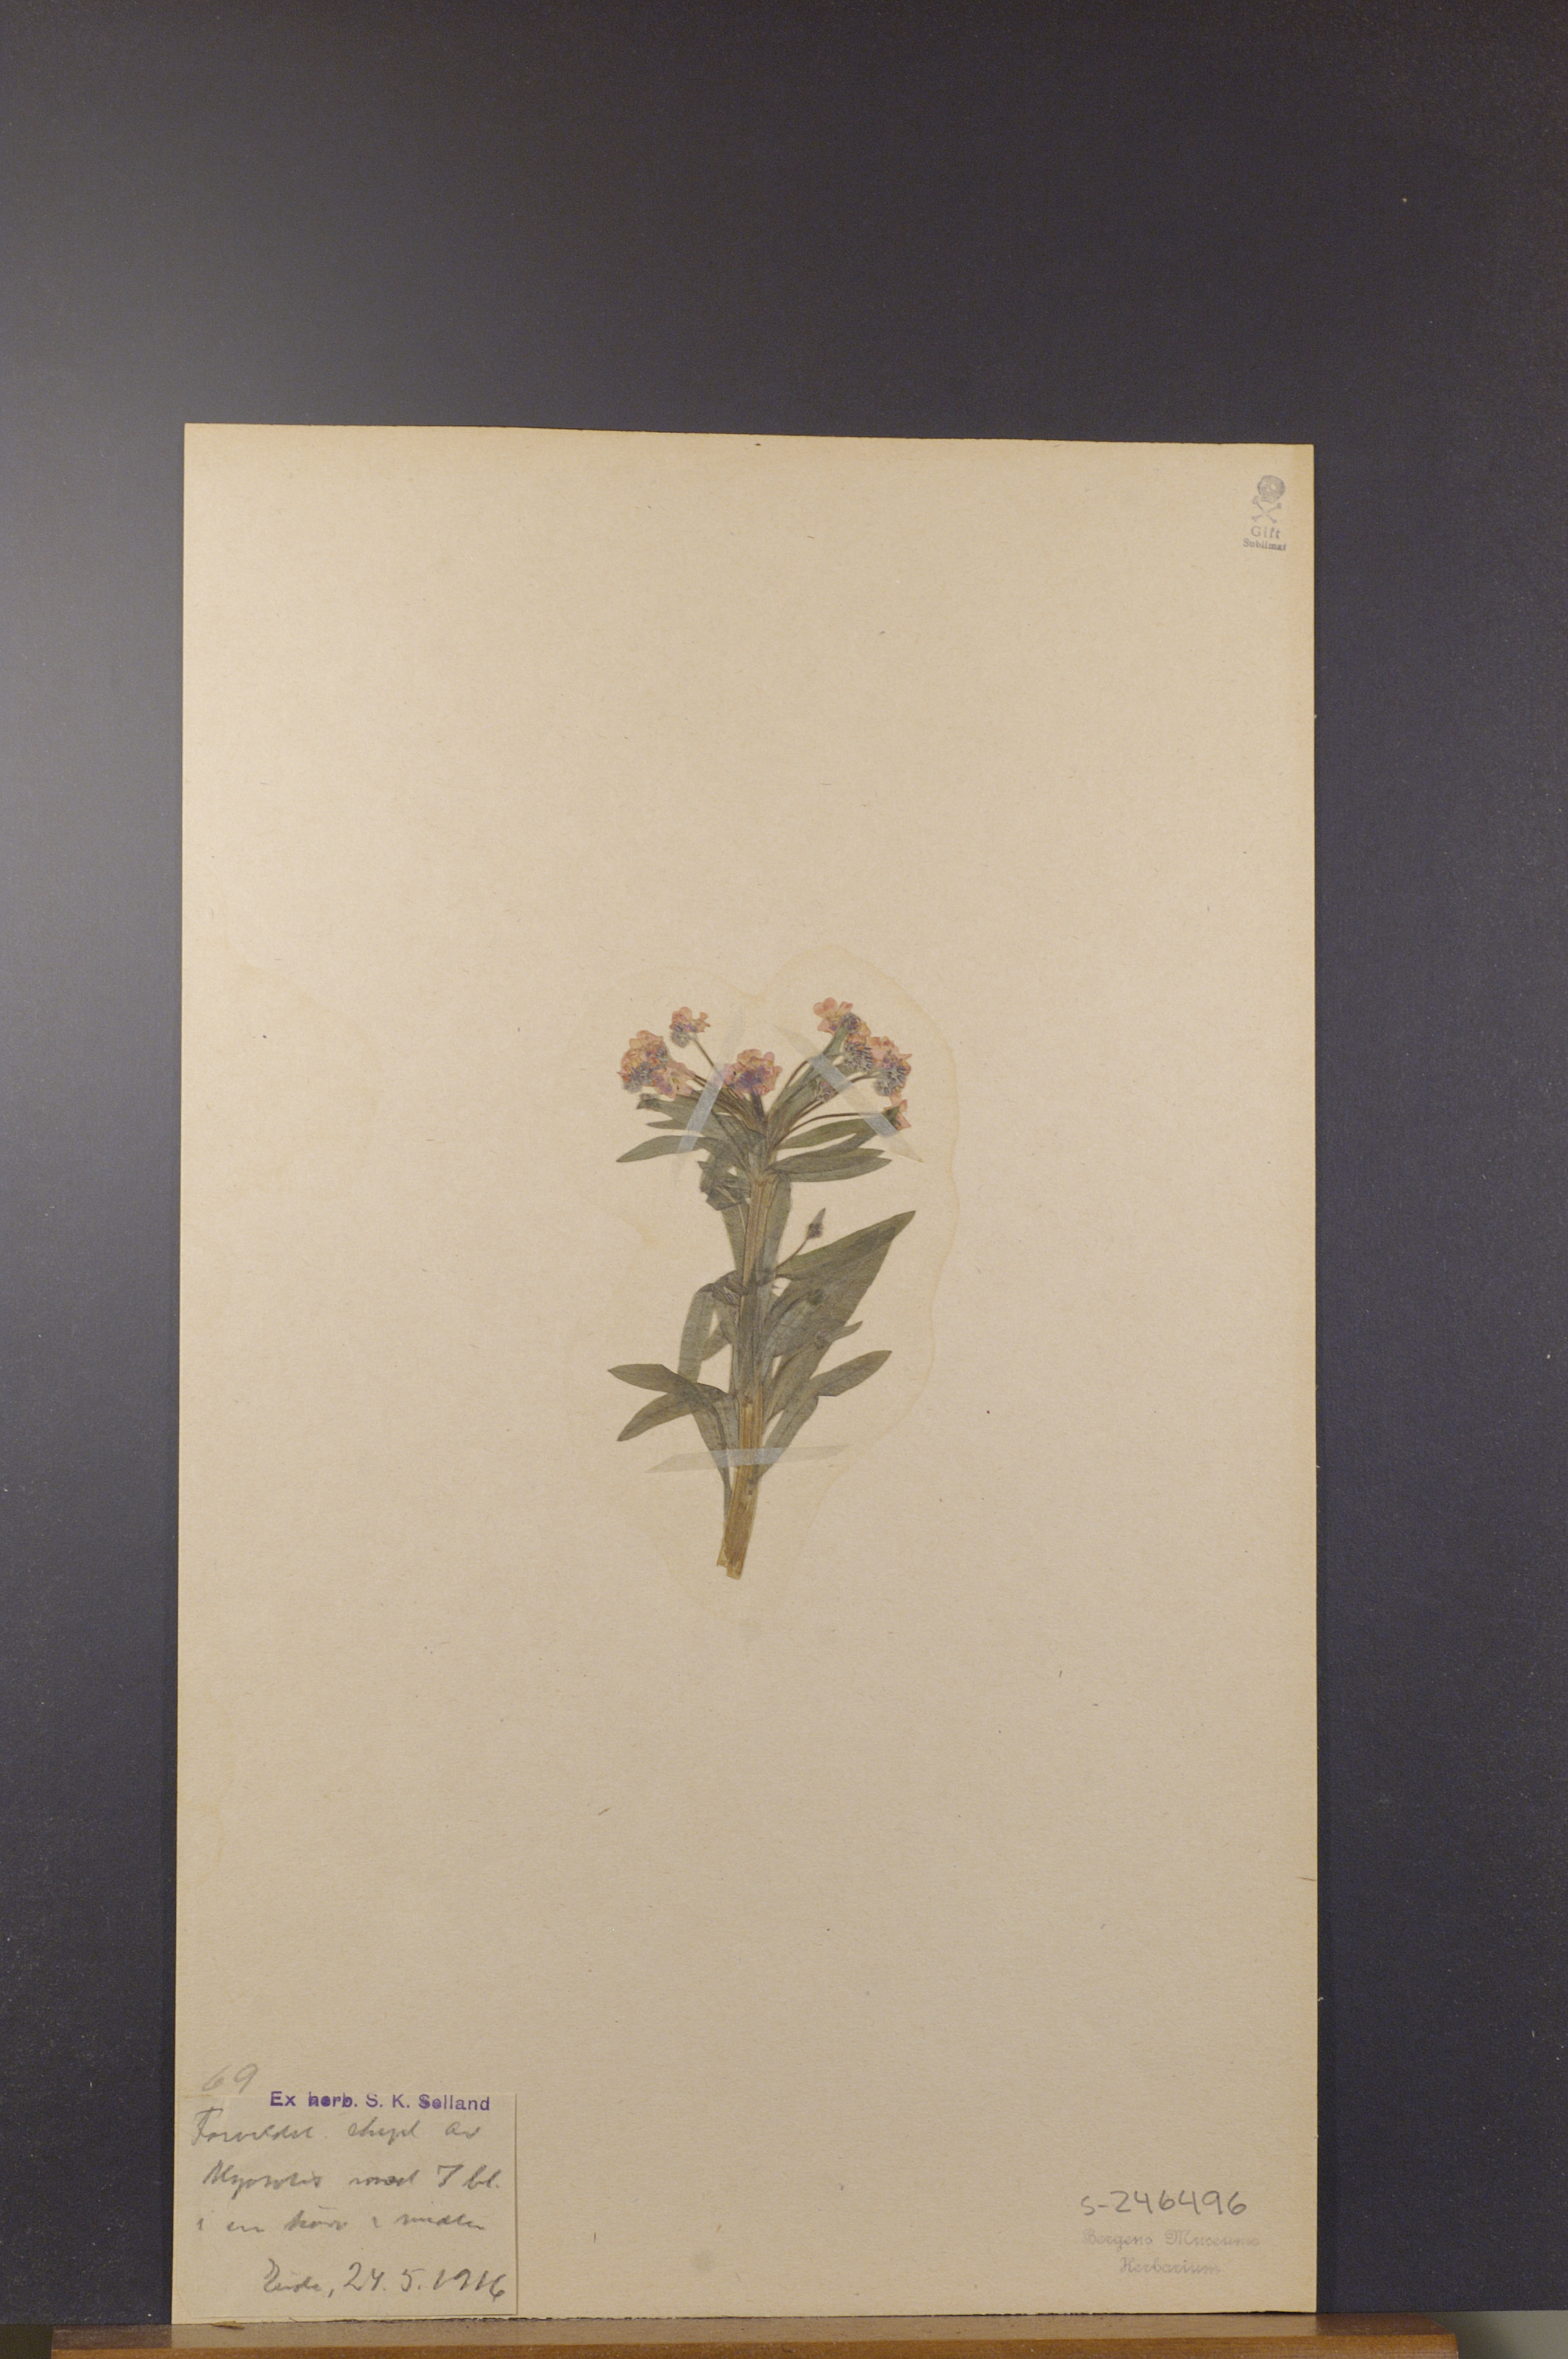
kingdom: Plantae
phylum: Tracheophyta
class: Magnoliopsida
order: Boraginales
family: Boraginaceae
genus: Myosotis
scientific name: Myosotis
